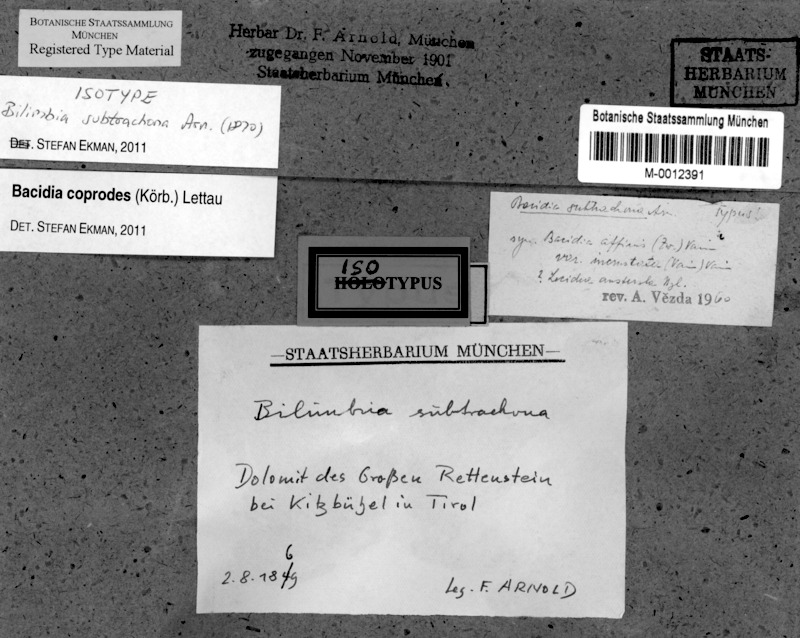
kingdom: Fungi
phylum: Ascomycota
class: Lecanoromycetes
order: Lecanorales
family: Ramalinaceae
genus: Toniniopsis
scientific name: Toniniopsis coprodes
